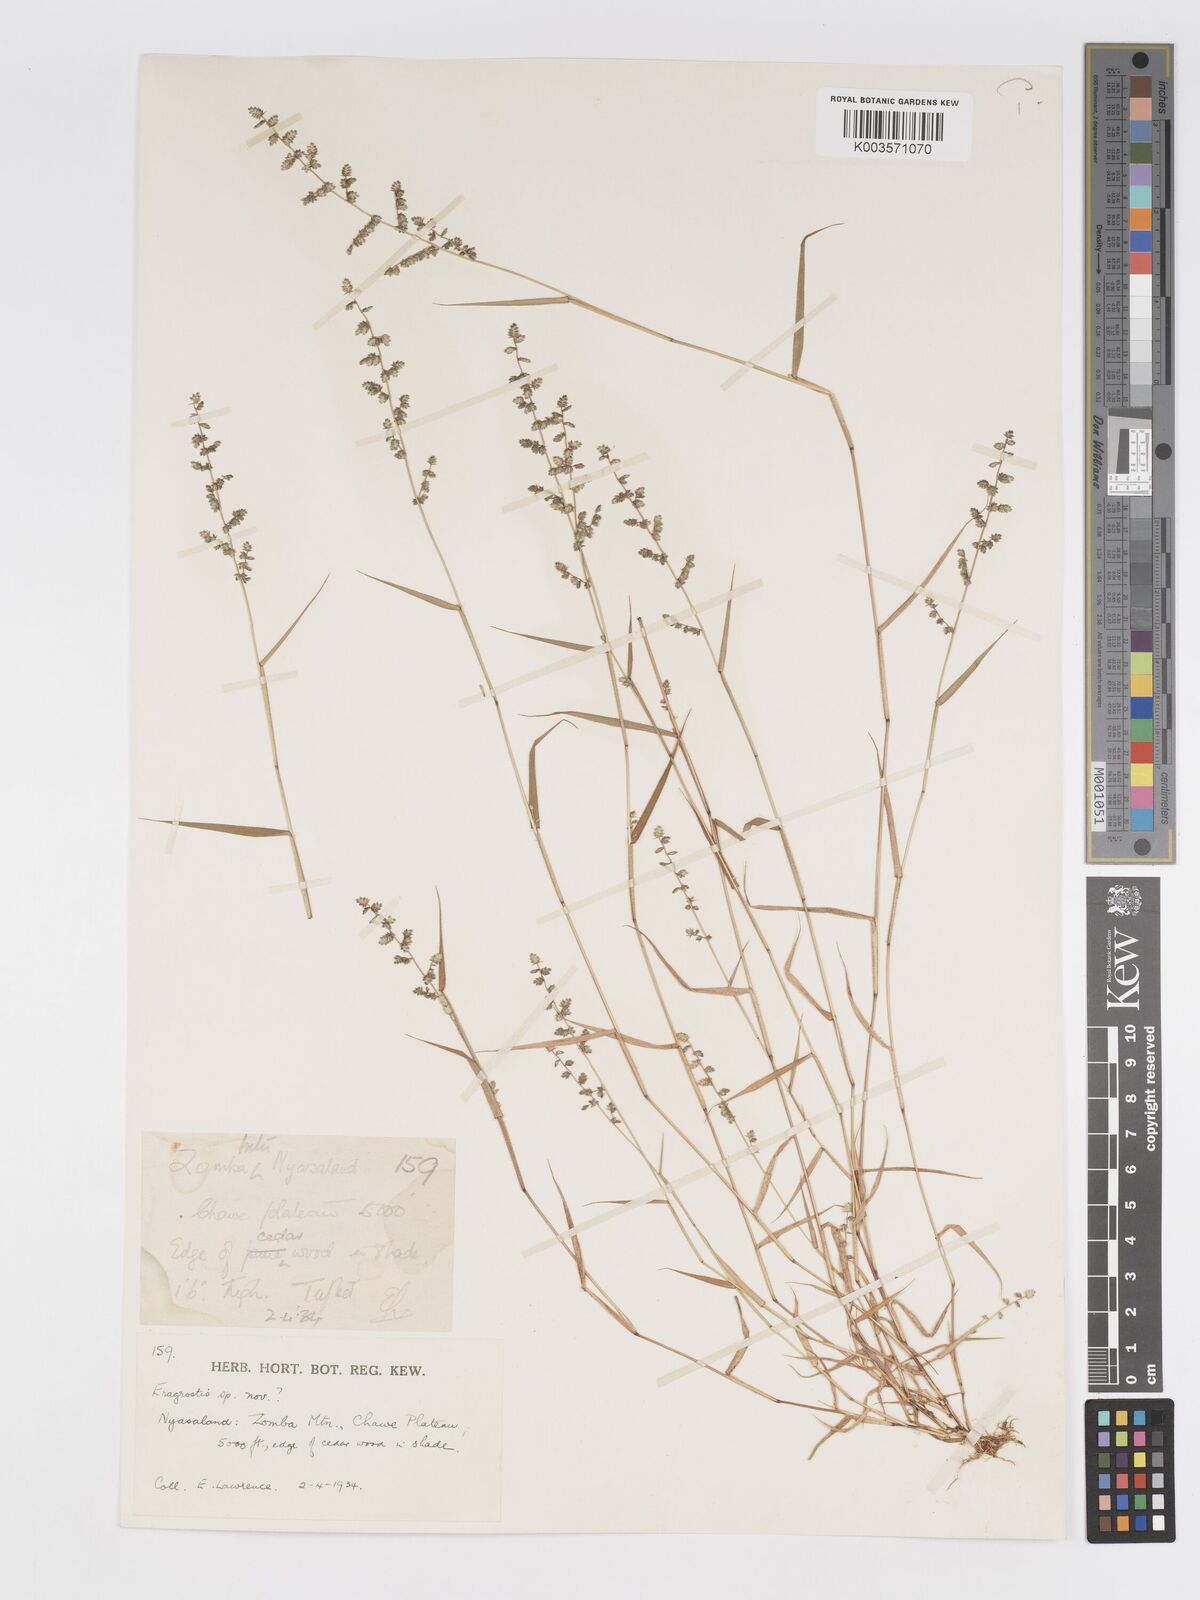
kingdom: Plantae
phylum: Tracheophyta
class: Liliopsida
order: Poales
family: Poaceae
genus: Eragrostis
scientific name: Eragrostis flavicans
